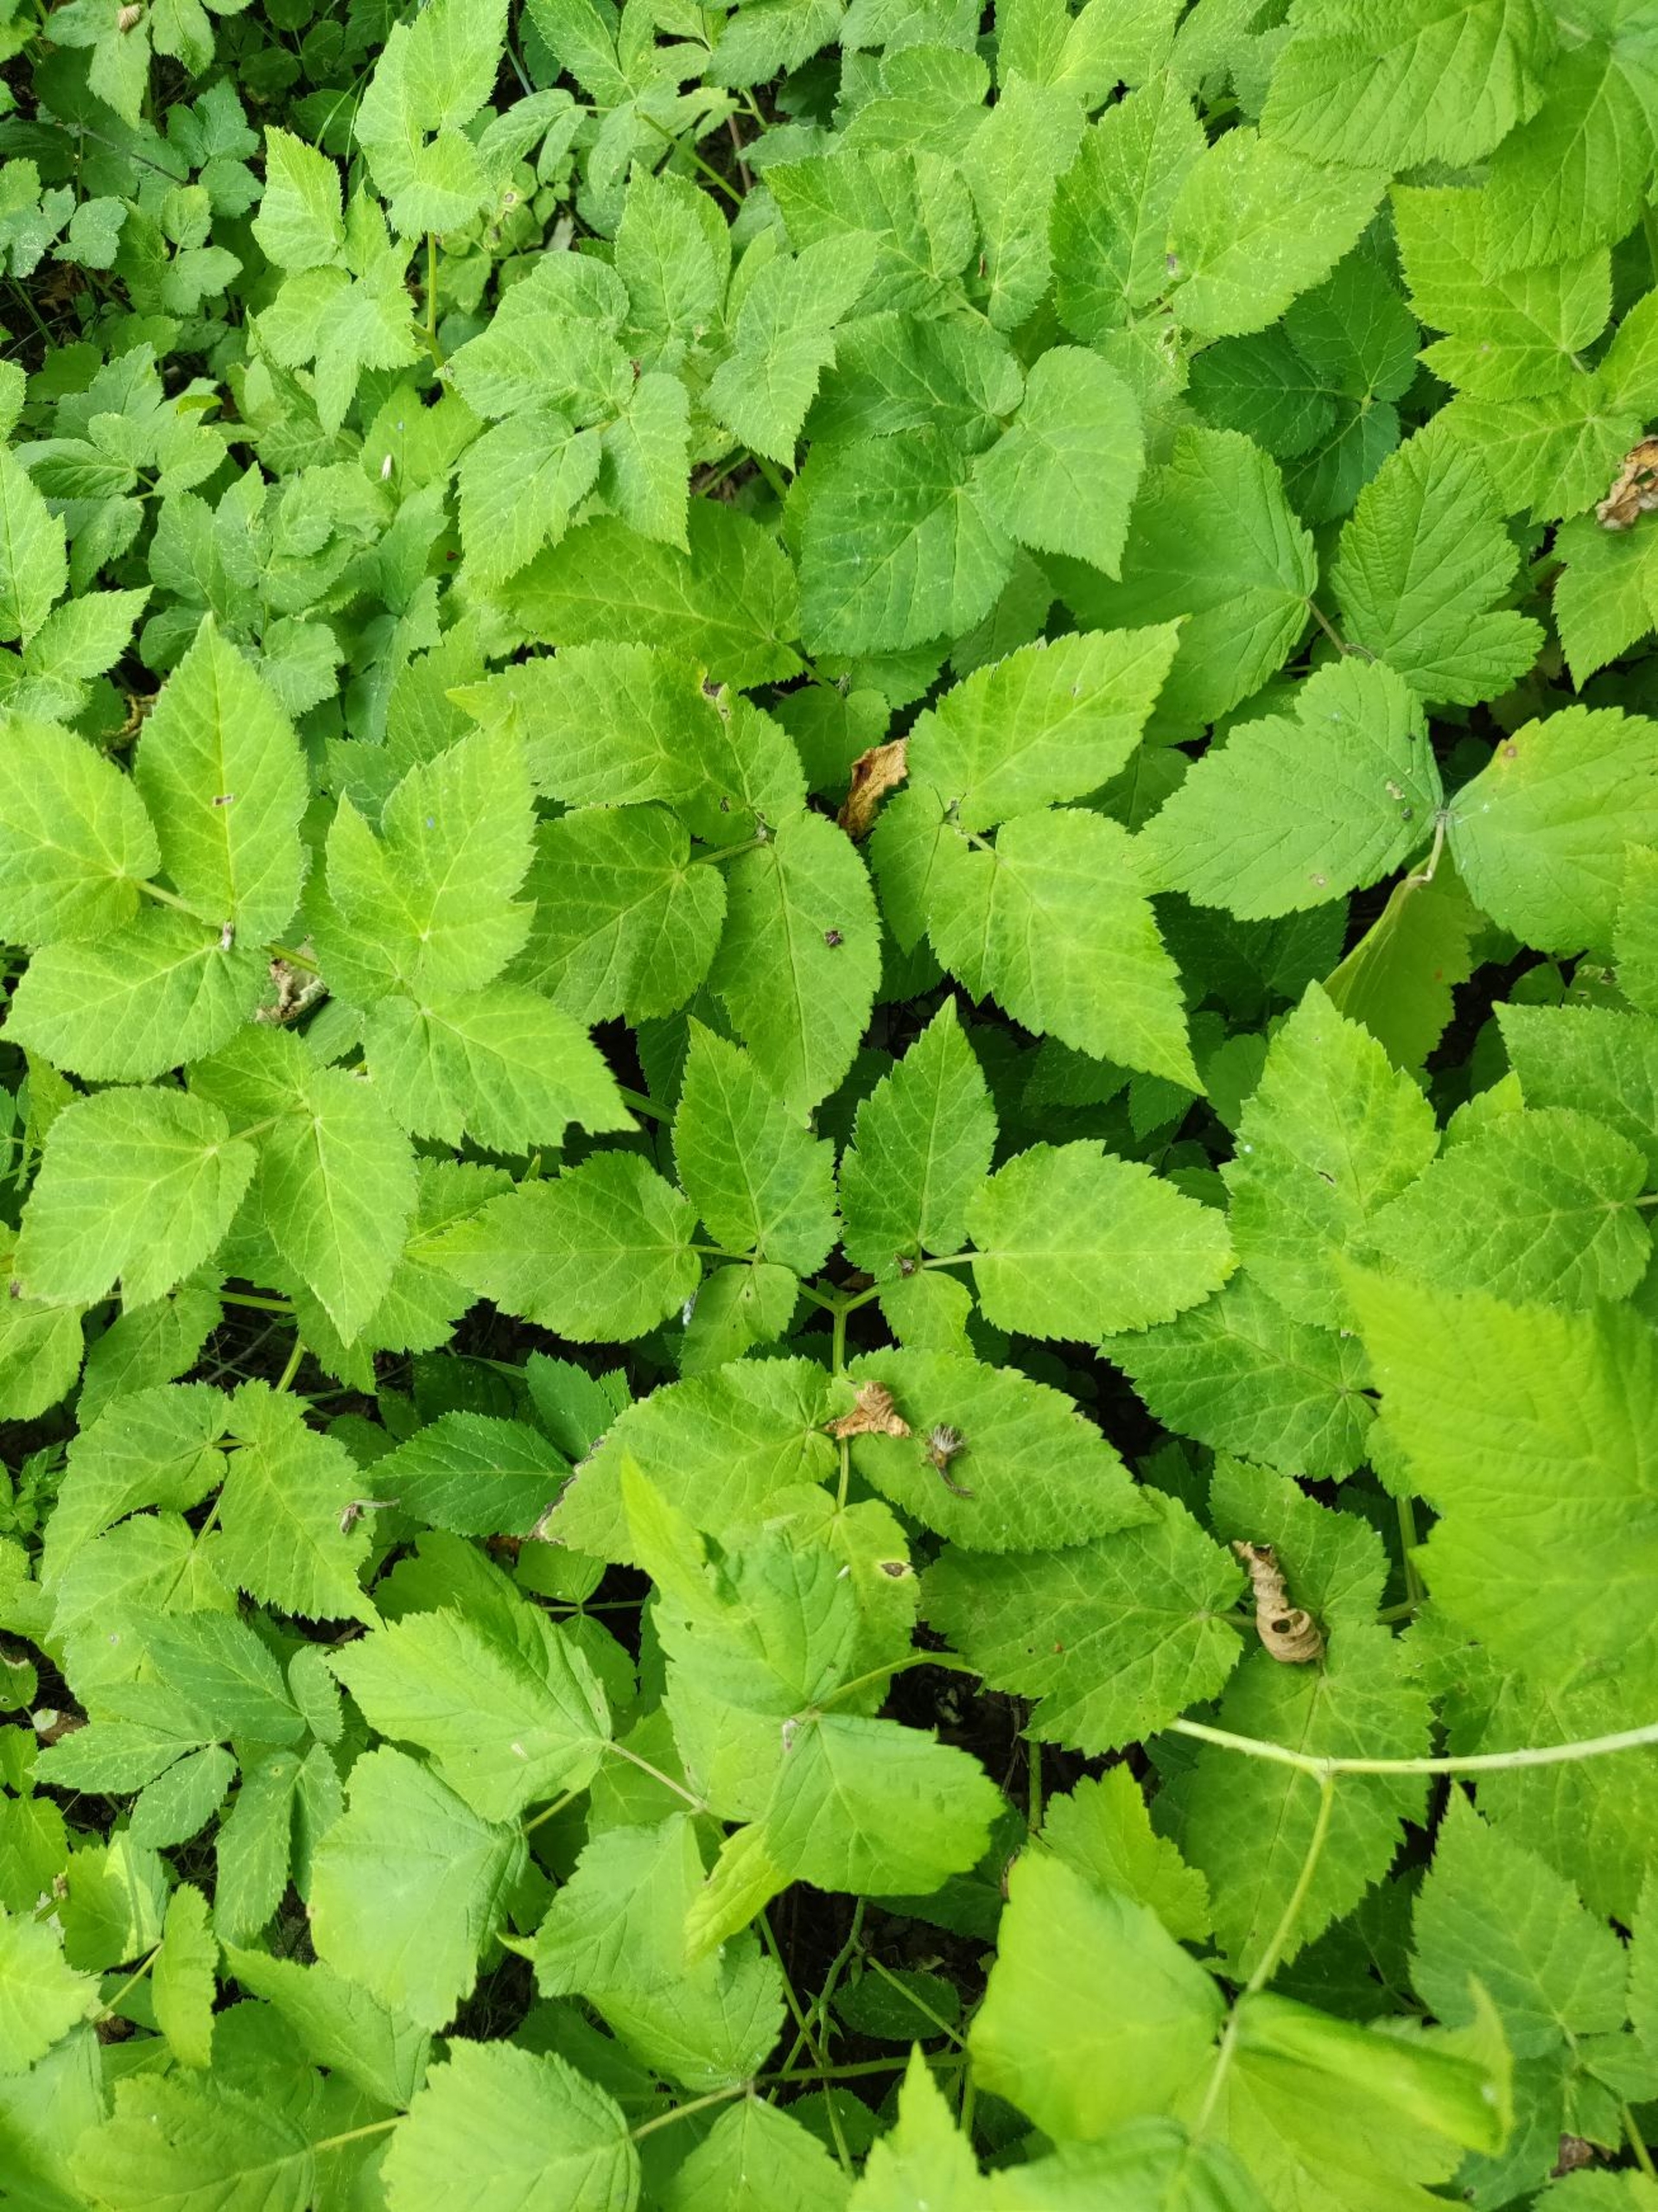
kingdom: Plantae
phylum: Tracheophyta
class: Magnoliopsida
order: Apiales
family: Apiaceae
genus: Aegopodium
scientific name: Aegopodium podagraria
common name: Skvalderkål
